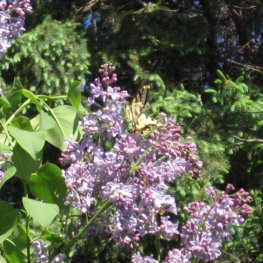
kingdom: Animalia
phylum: Arthropoda
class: Insecta
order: Lepidoptera
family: Papilionidae
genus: Pterourus
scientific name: Pterourus canadensis
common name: Canadian Tiger Swallowtail
